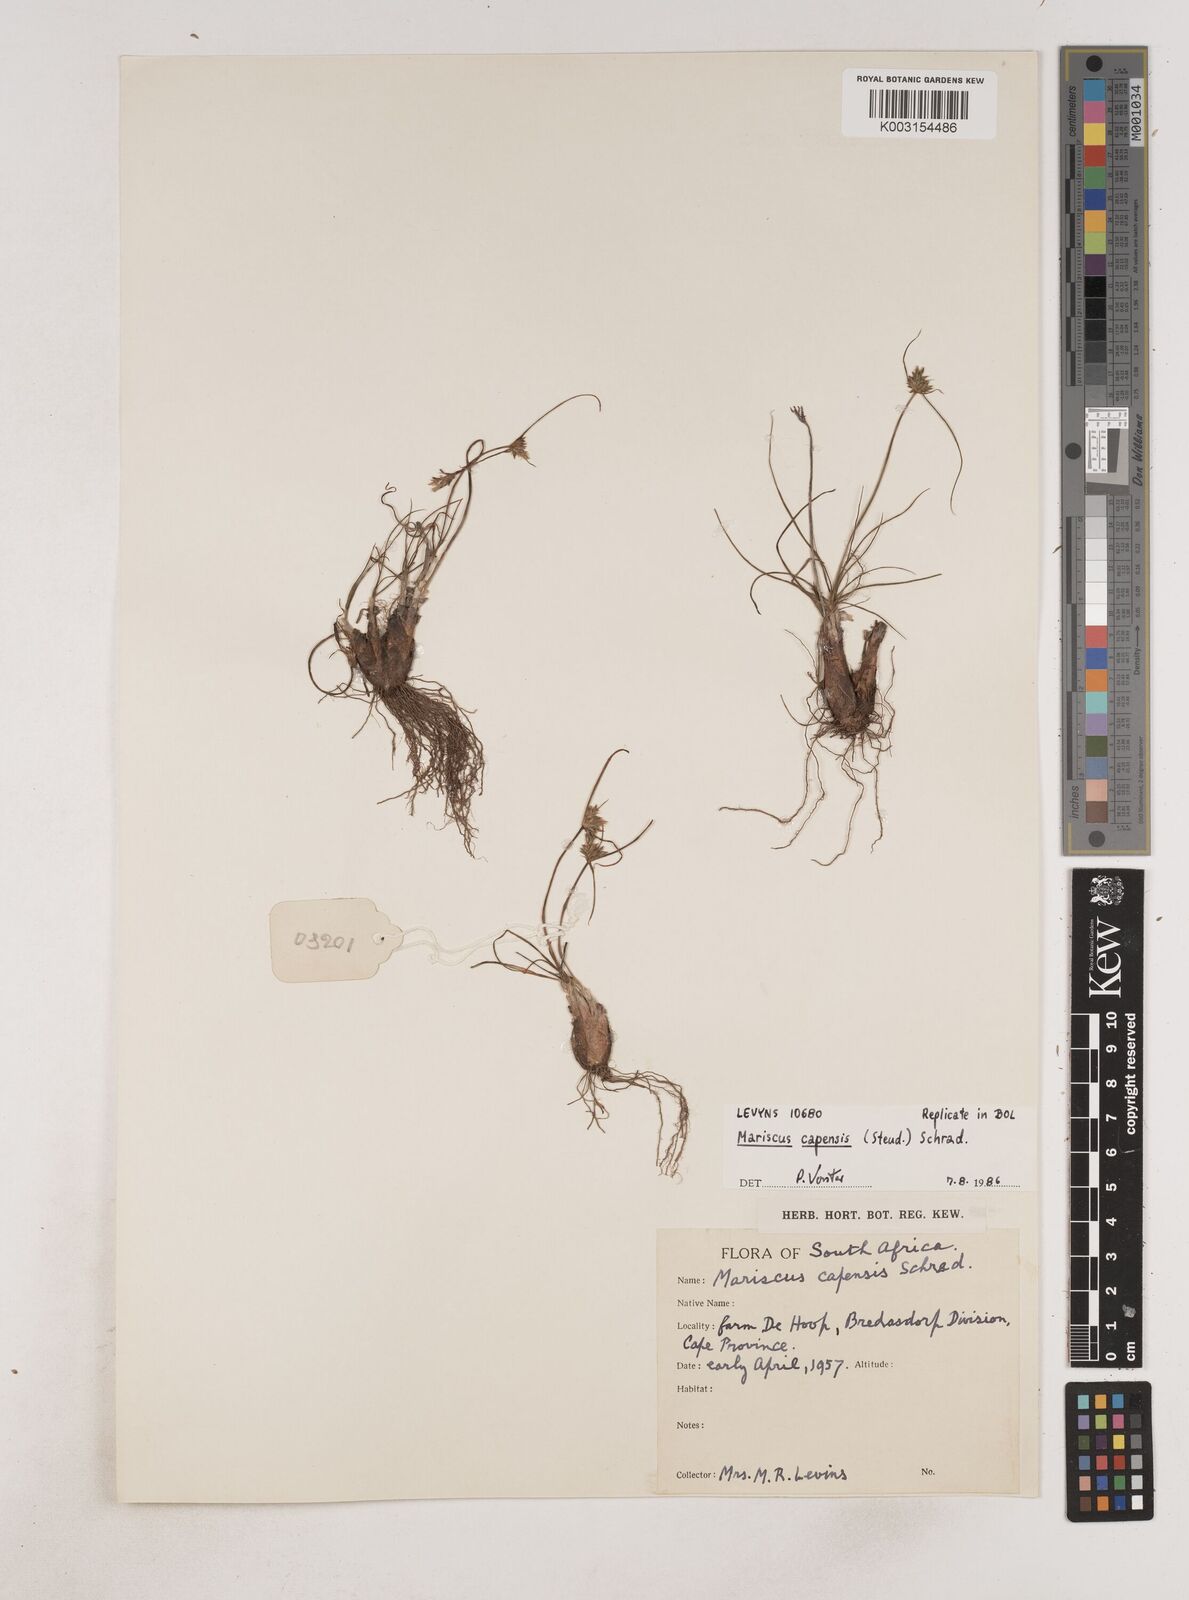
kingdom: Plantae
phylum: Tracheophyta
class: Liliopsida
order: Poales
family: Cyperaceae
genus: Cyperus
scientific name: Cyperus capensis
